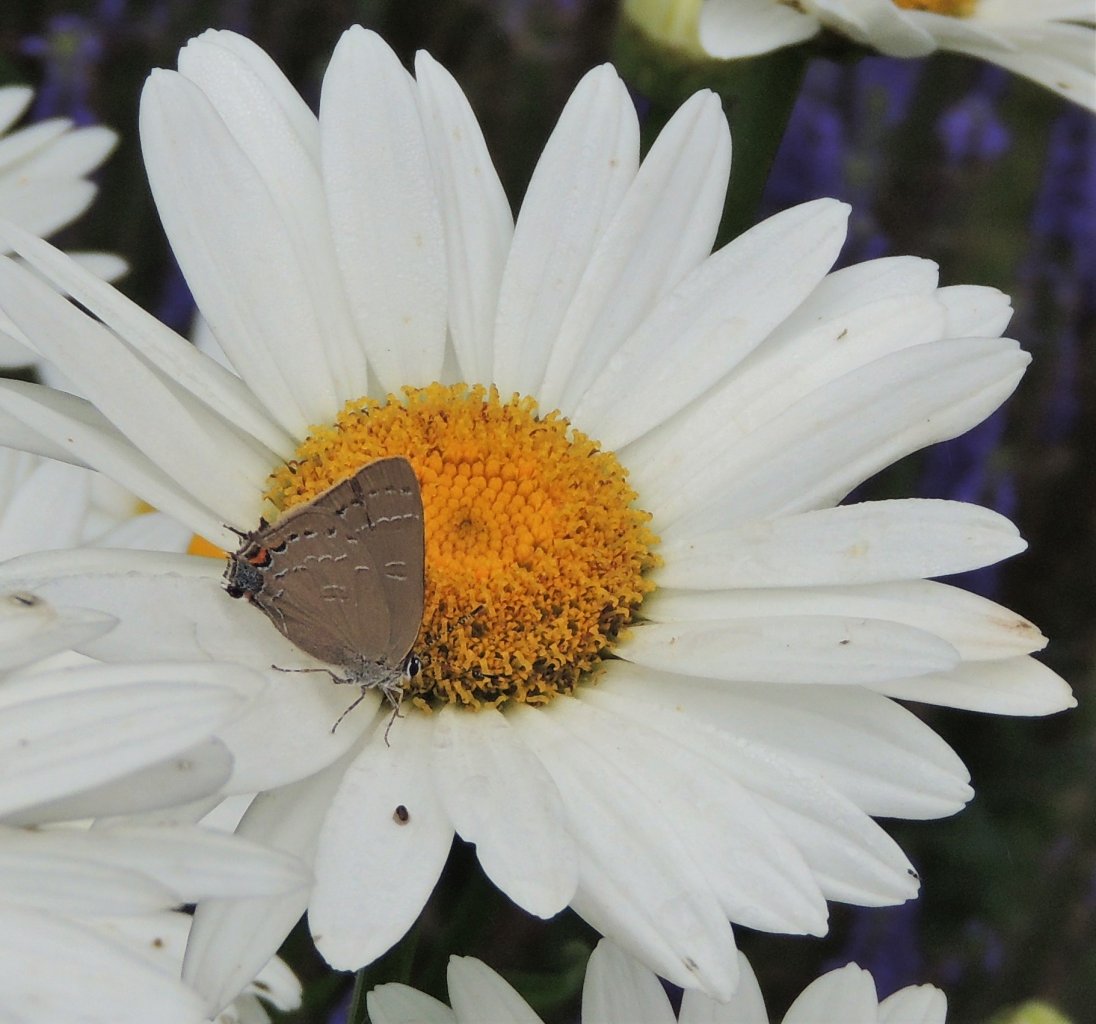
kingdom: Animalia
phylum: Arthropoda
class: Insecta
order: Lepidoptera
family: Lycaenidae
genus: Satyrium
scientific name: Satyrium
